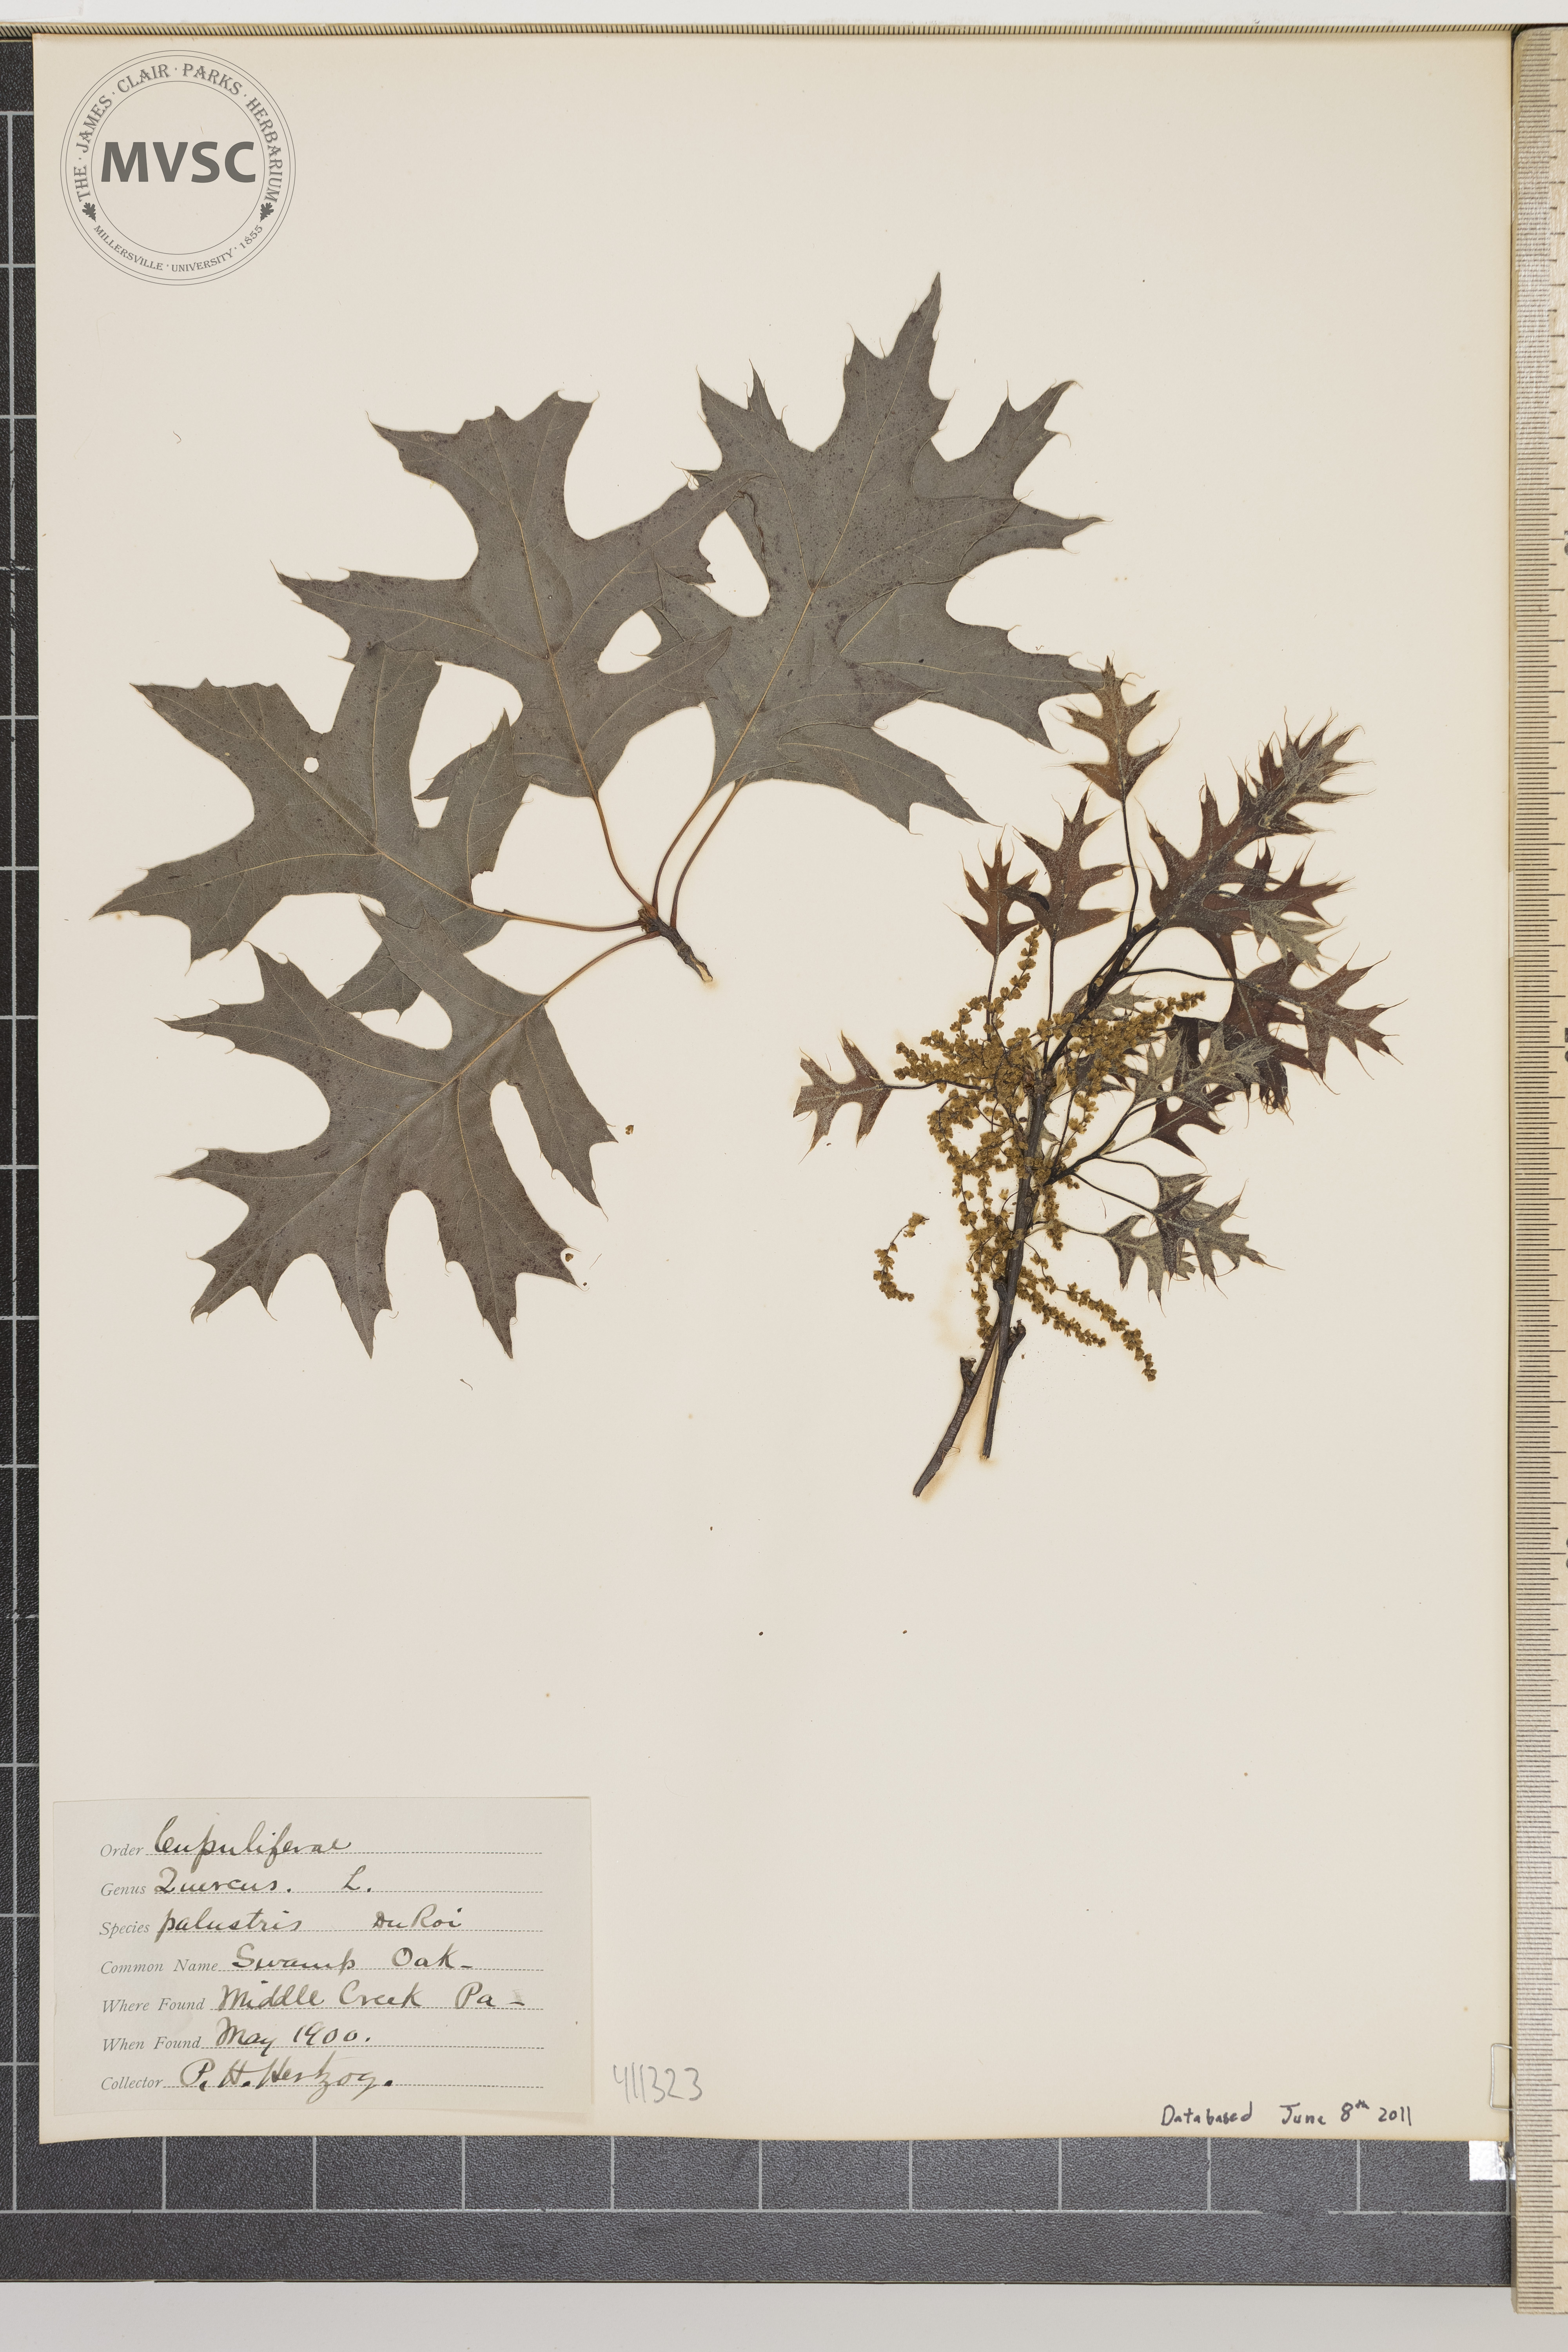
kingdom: Plantae
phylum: Tracheophyta
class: Magnoliopsida
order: Fagales
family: Fagaceae
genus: Quercus
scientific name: Quercus palustris
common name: Pin oak
